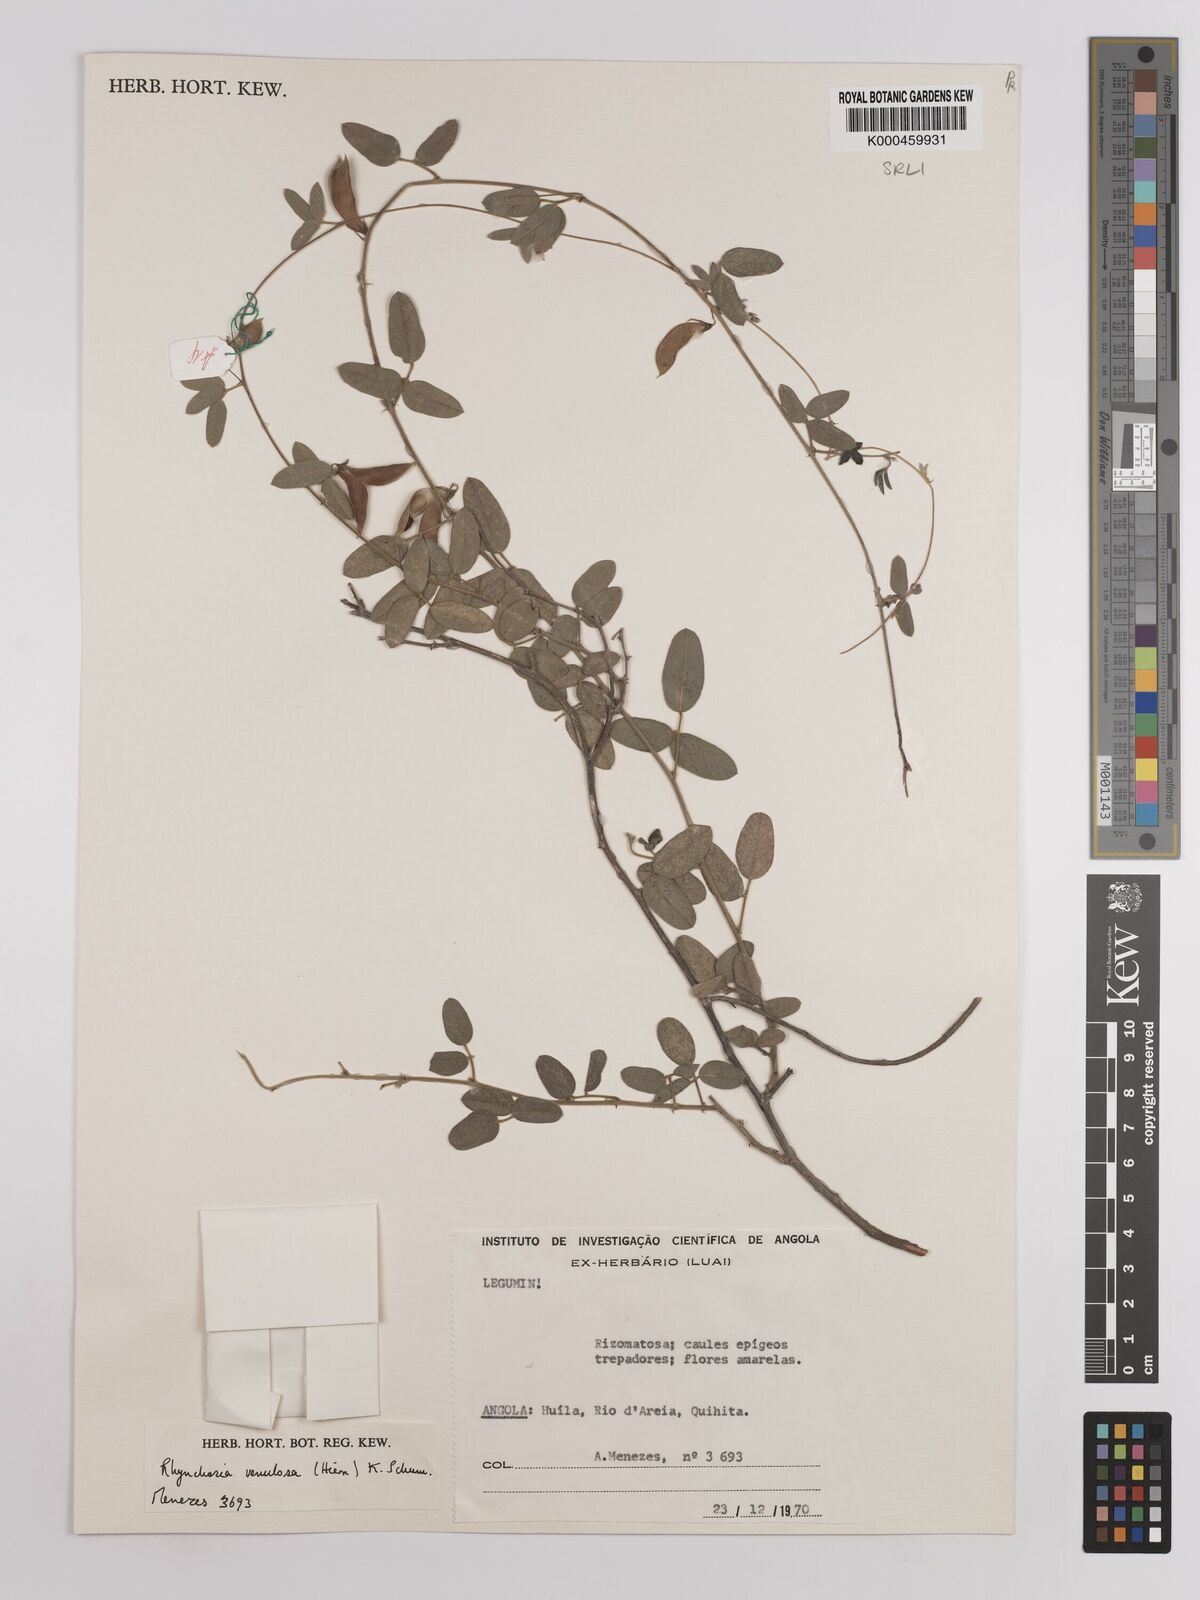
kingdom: Plantae
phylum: Tracheophyta
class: Magnoliopsida
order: Fabales
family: Fabaceae
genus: Rhynchosia
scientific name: Rhynchosia totta
